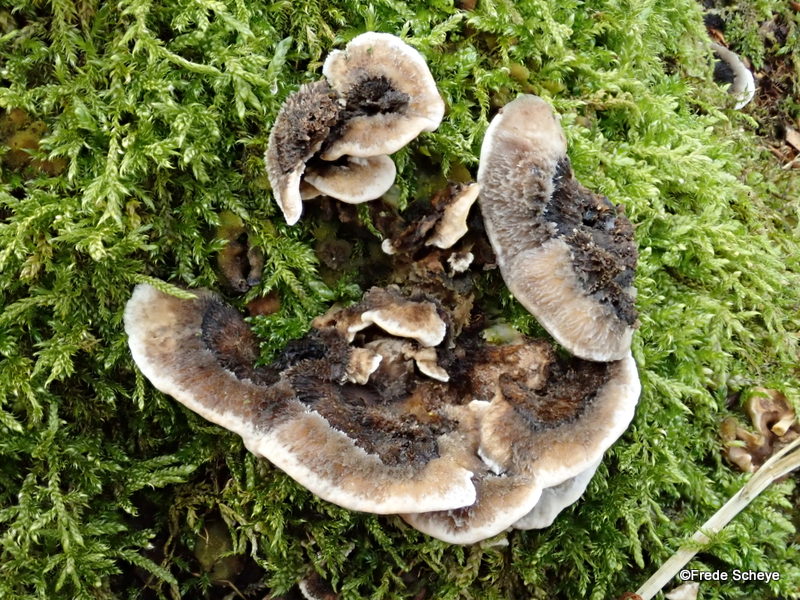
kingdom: Fungi
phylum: Basidiomycota
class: Agaricomycetes
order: Polyporales
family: Phanerochaetaceae
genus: Bjerkandera
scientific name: Bjerkandera adusta
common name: sveden sodporesvamp
